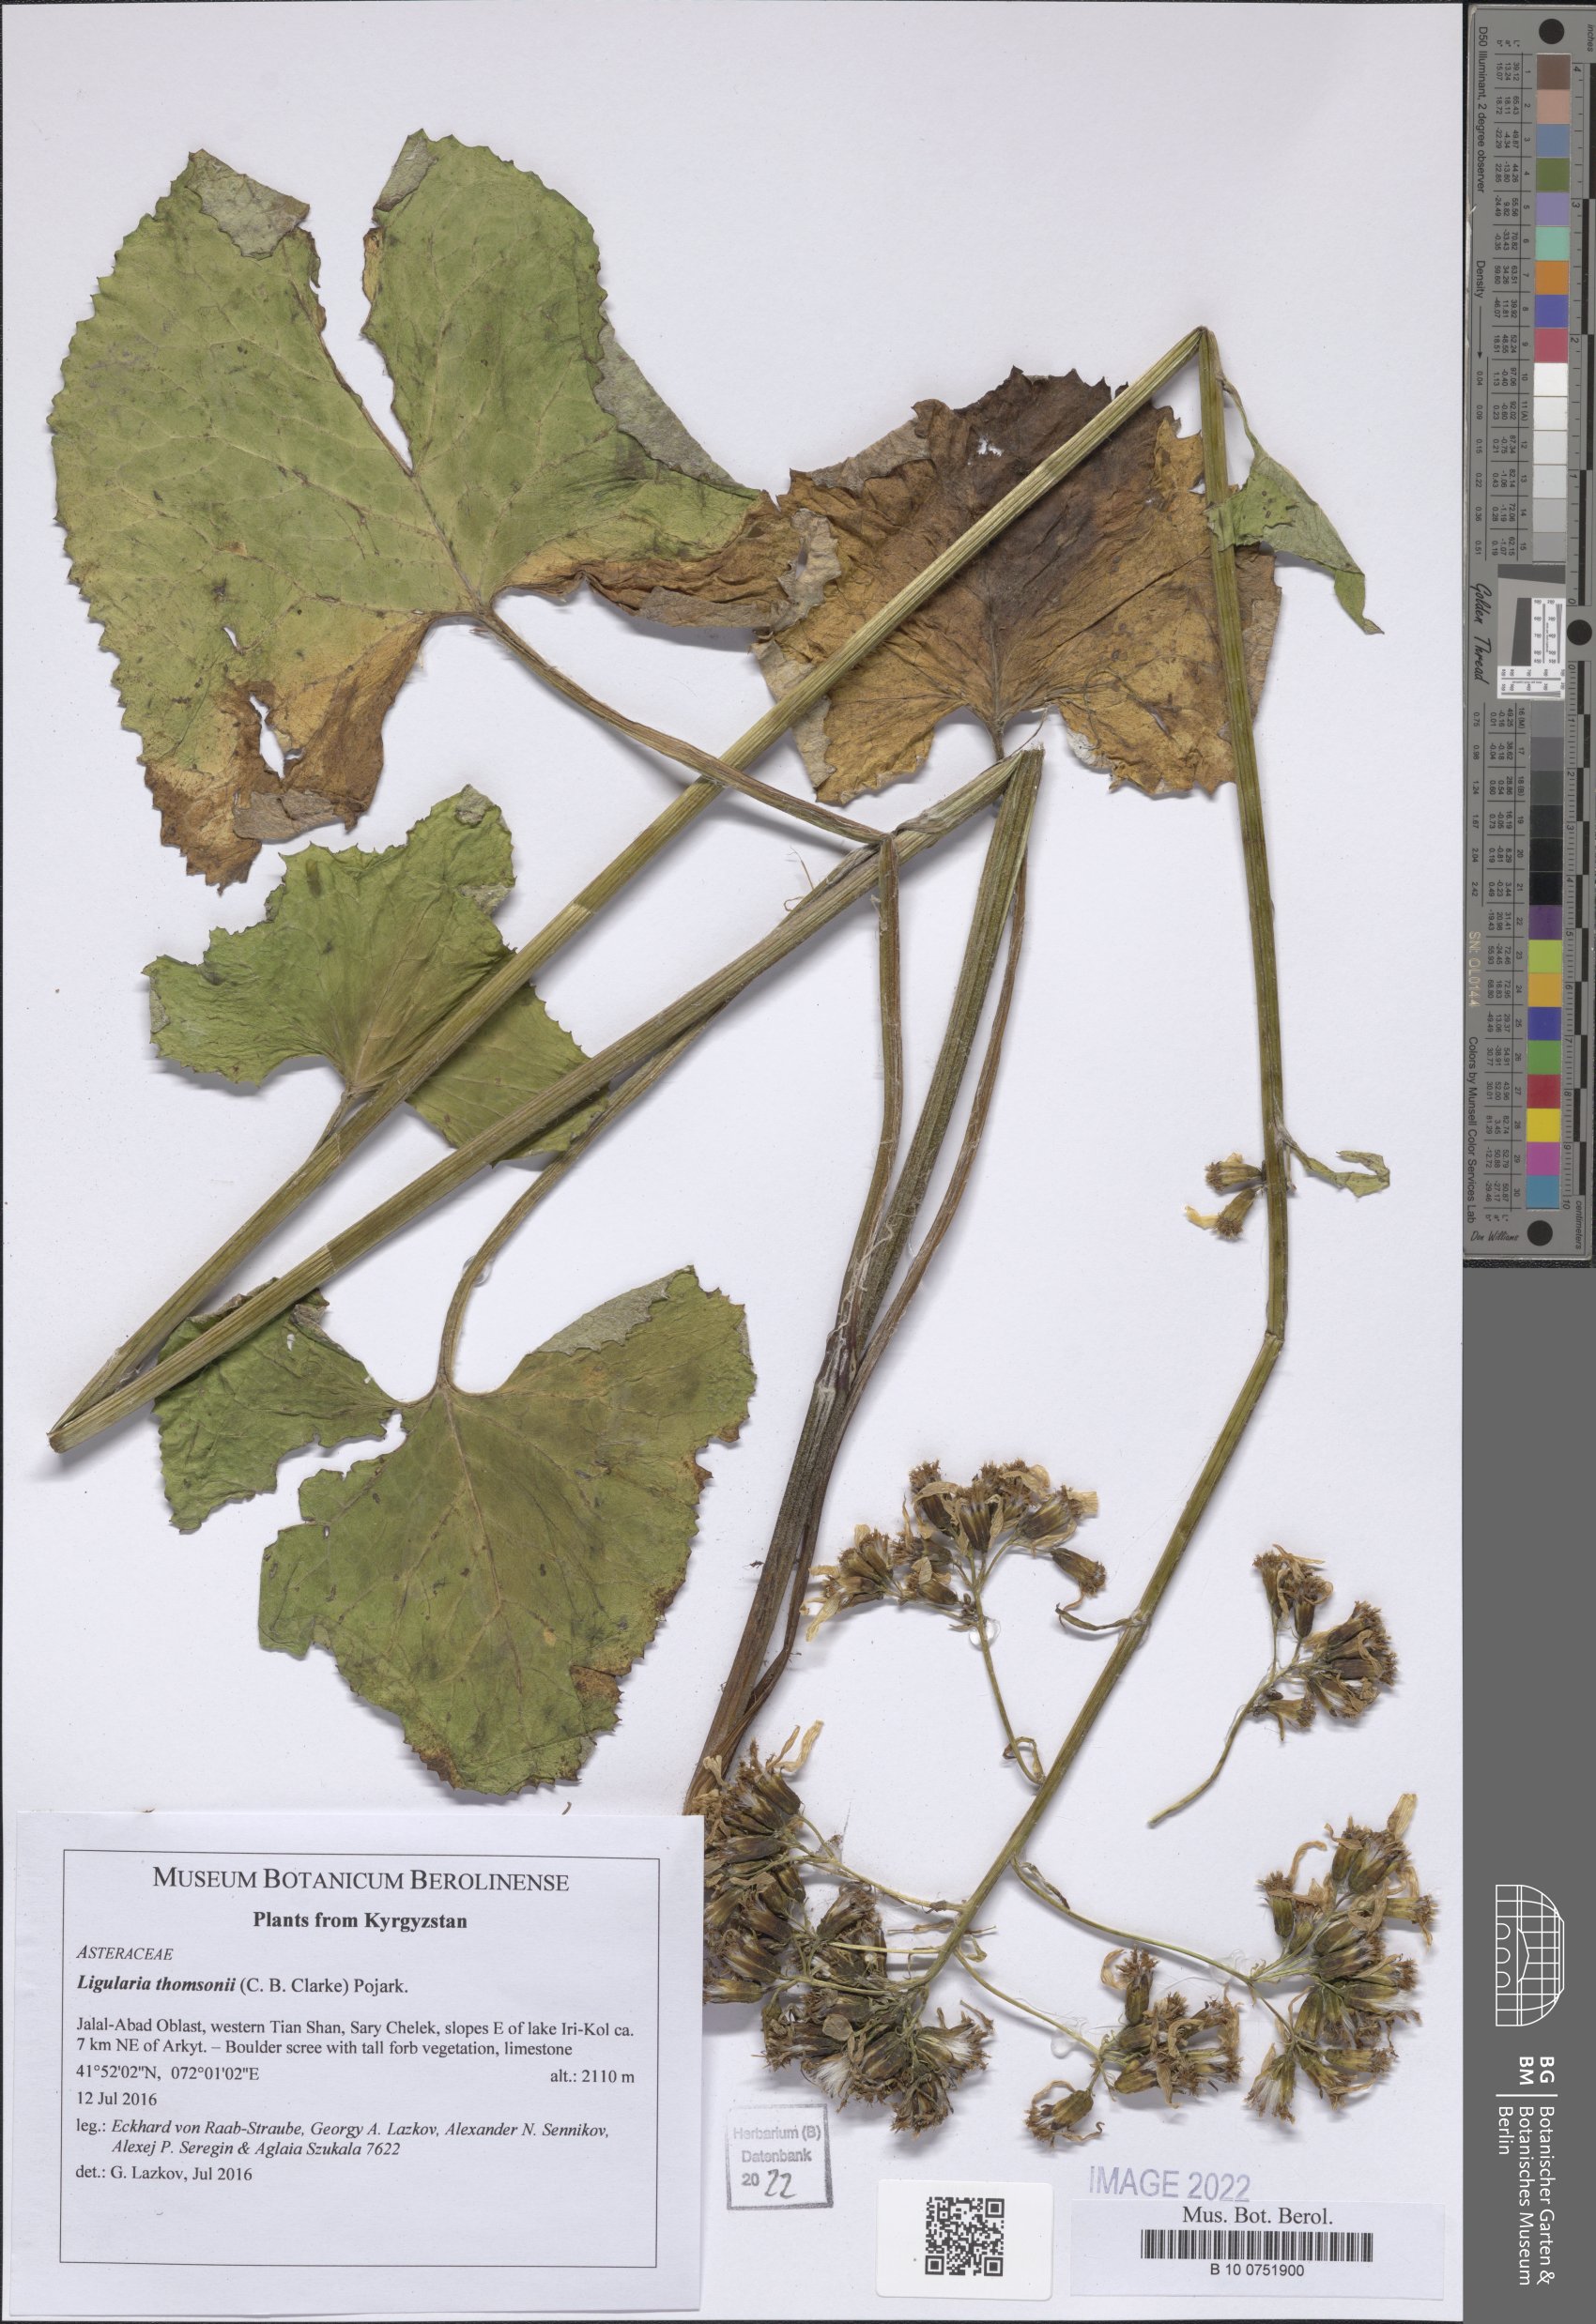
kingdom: Plantae
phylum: Tracheophyta
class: Magnoliopsida
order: Asterales
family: Asteraceae
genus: Vickifunkia
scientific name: Vickifunkia thomsonii
